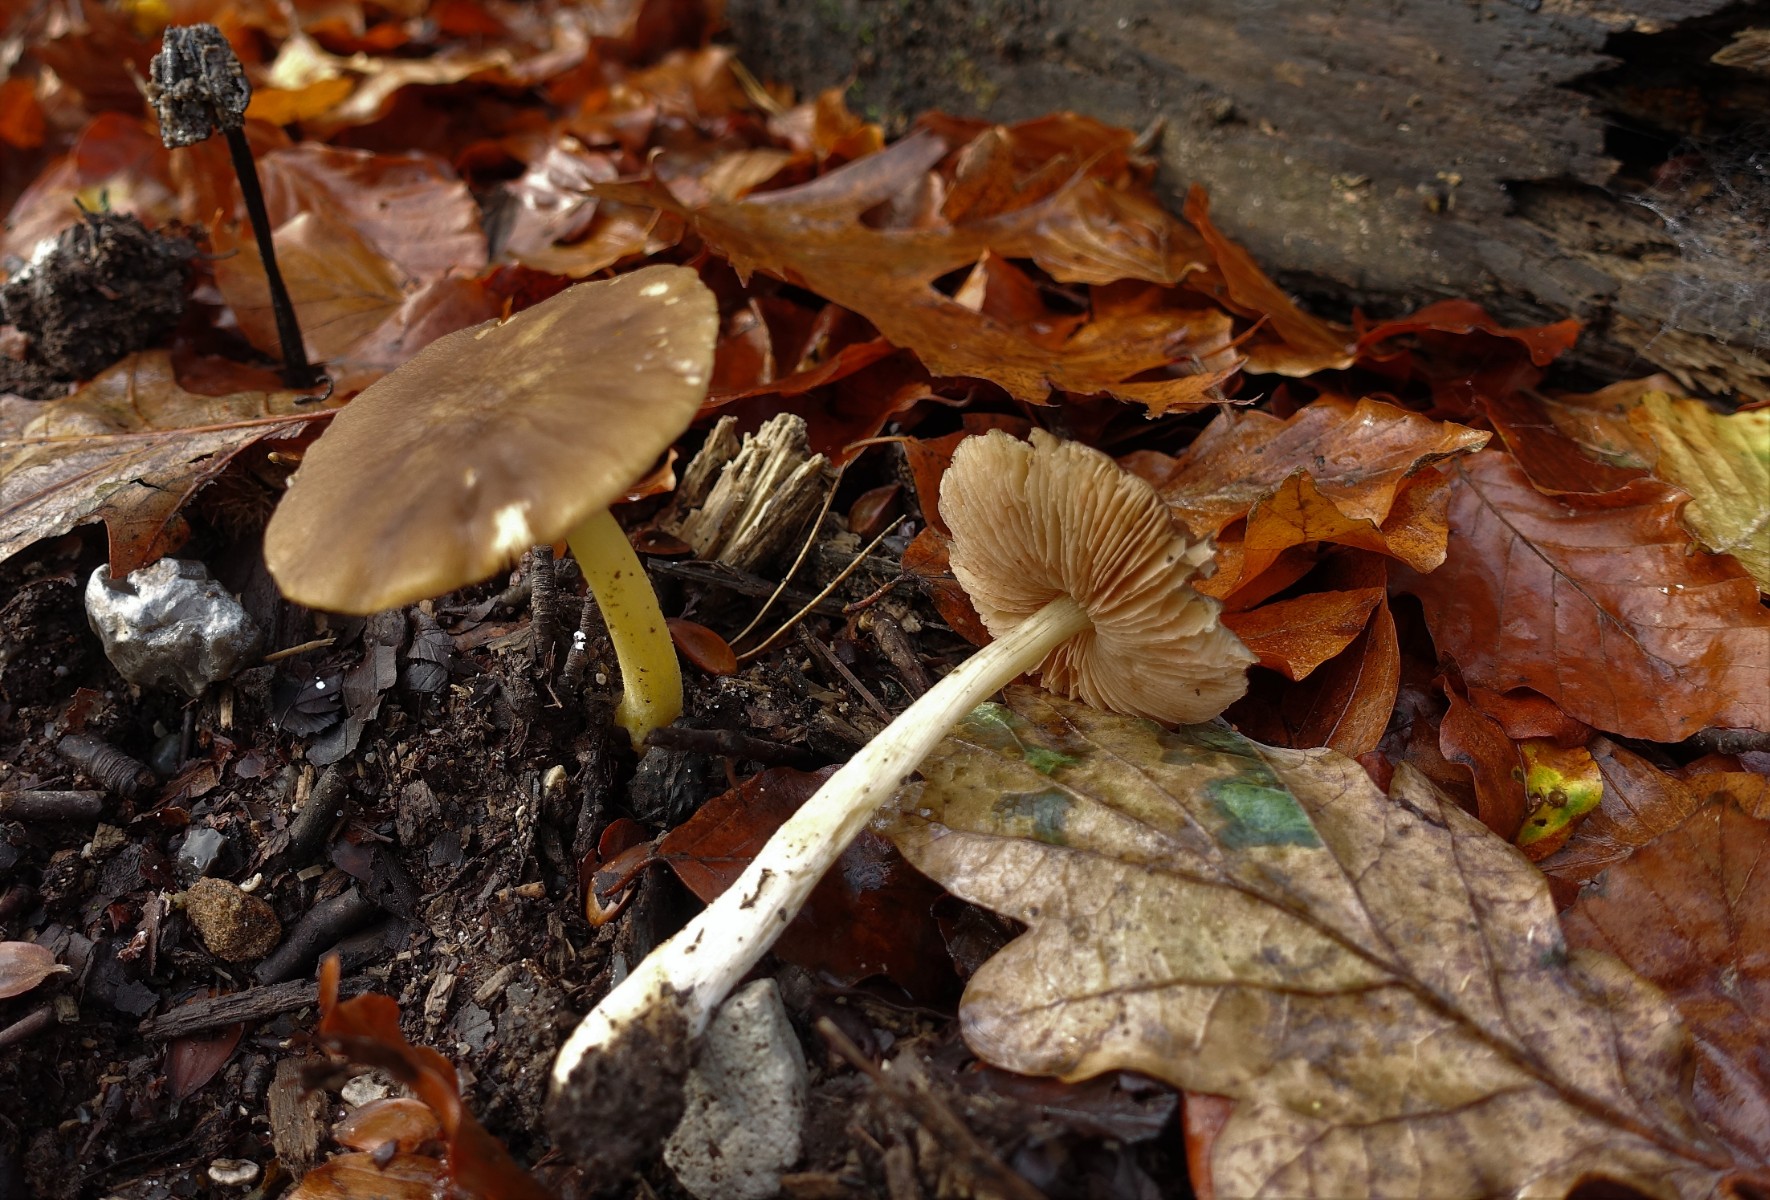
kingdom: Fungi
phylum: Basidiomycota
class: Agaricomycetes
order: Agaricales
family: Pluteaceae
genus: Pluteus
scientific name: Pluteus romellii
